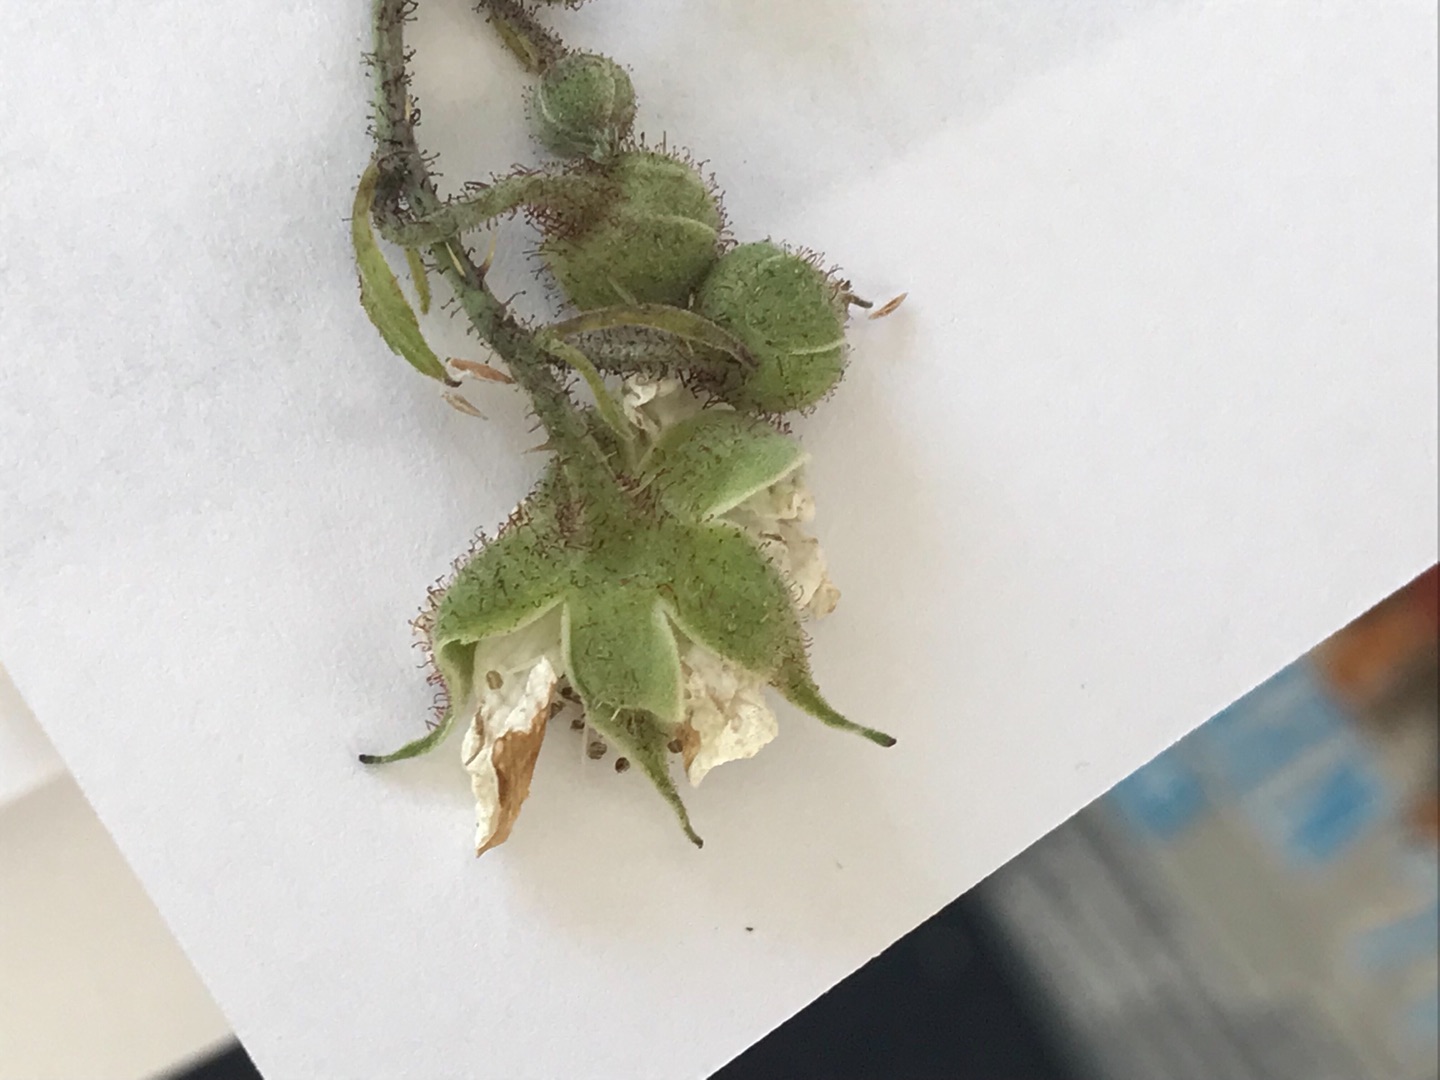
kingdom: Plantae
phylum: Tracheophyta
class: Magnoliopsida
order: Rosales
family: Rosaceae
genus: Rubus
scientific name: Rubus caesius
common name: Korbær
